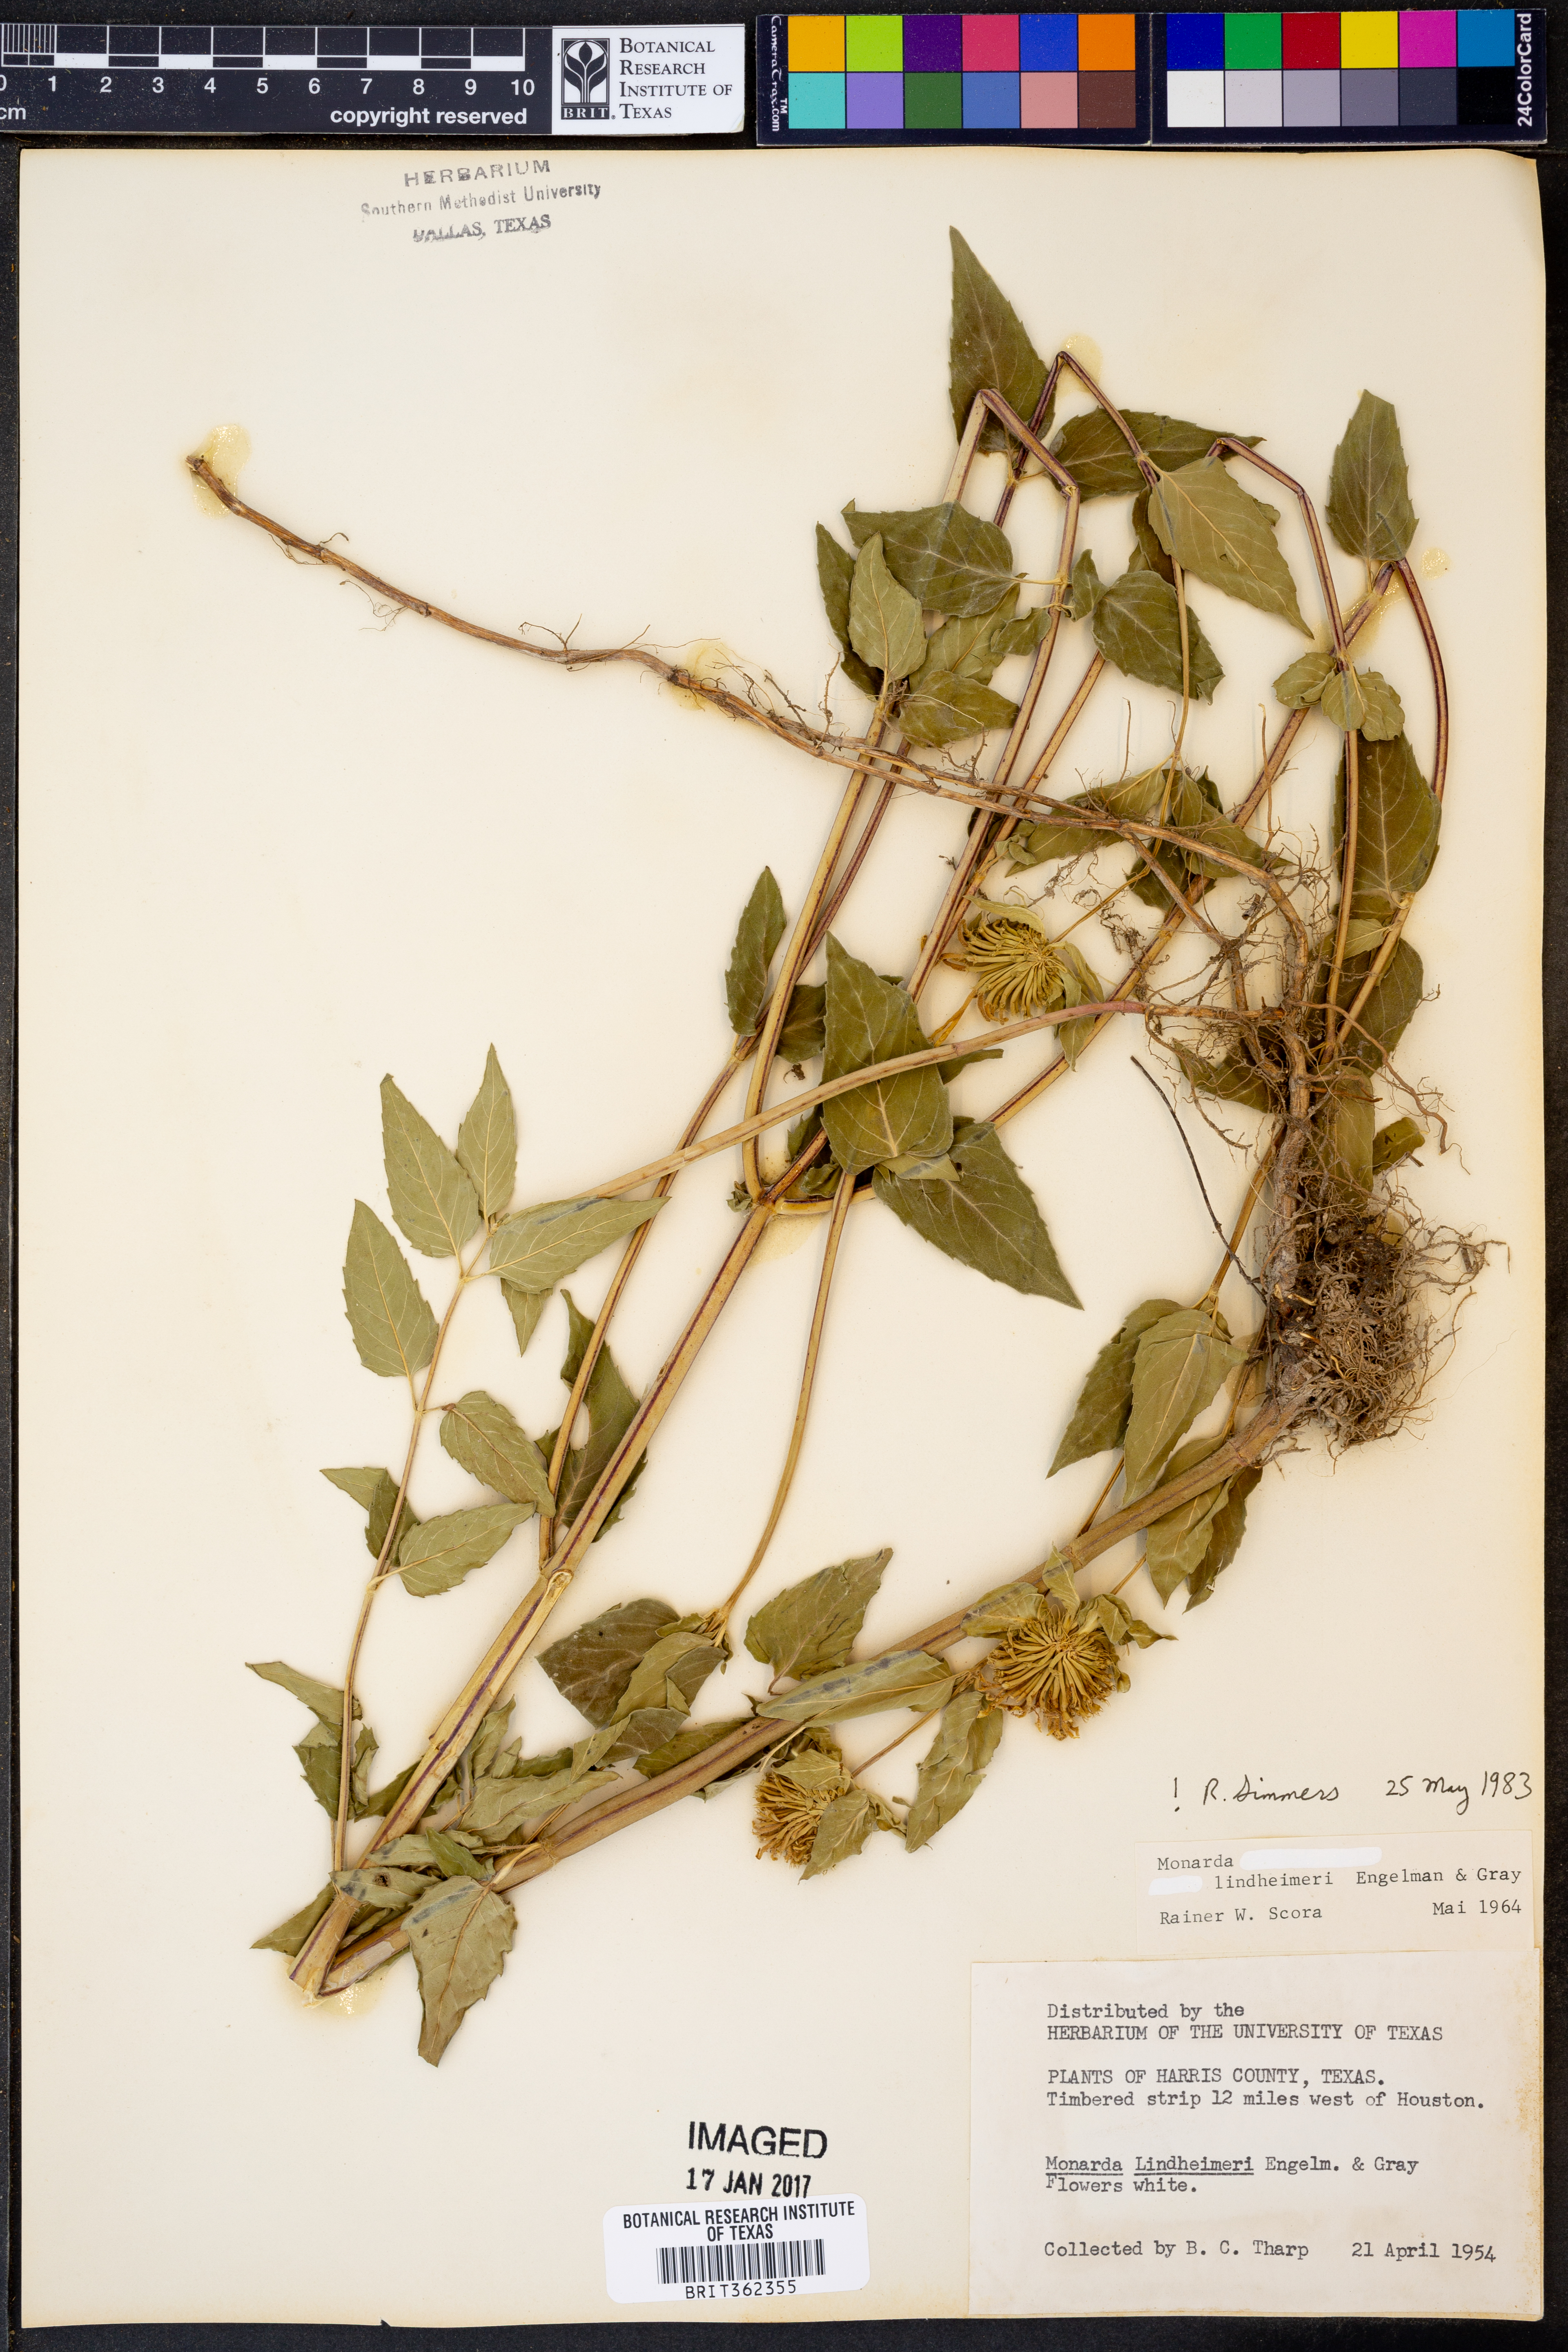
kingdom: Plantae
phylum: Tracheophyta
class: Magnoliopsida
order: Lamiales
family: Lamiaceae
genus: Monarda
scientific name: Monarda lindheimeri
